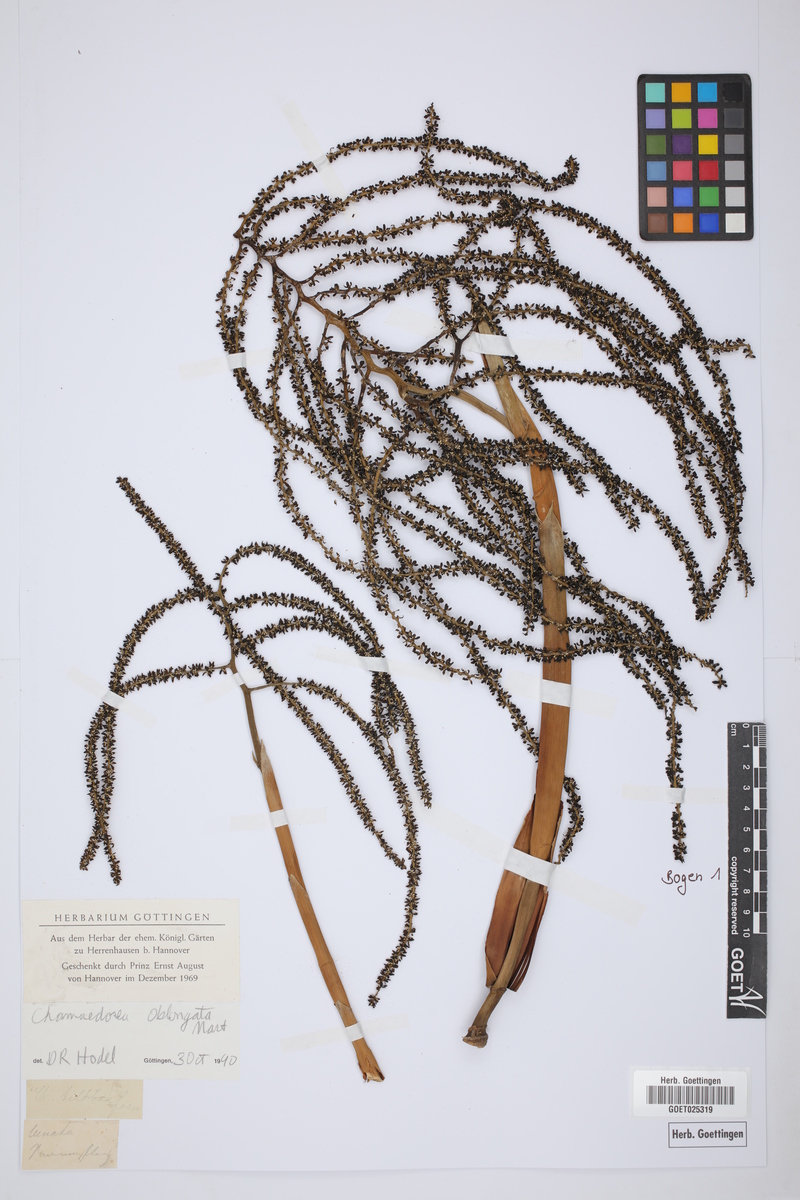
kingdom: Plantae
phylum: Tracheophyta
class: Liliopsida
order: Arecales
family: Arecaceae
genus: Chamaedorea
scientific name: Chamaedorea oblongata
